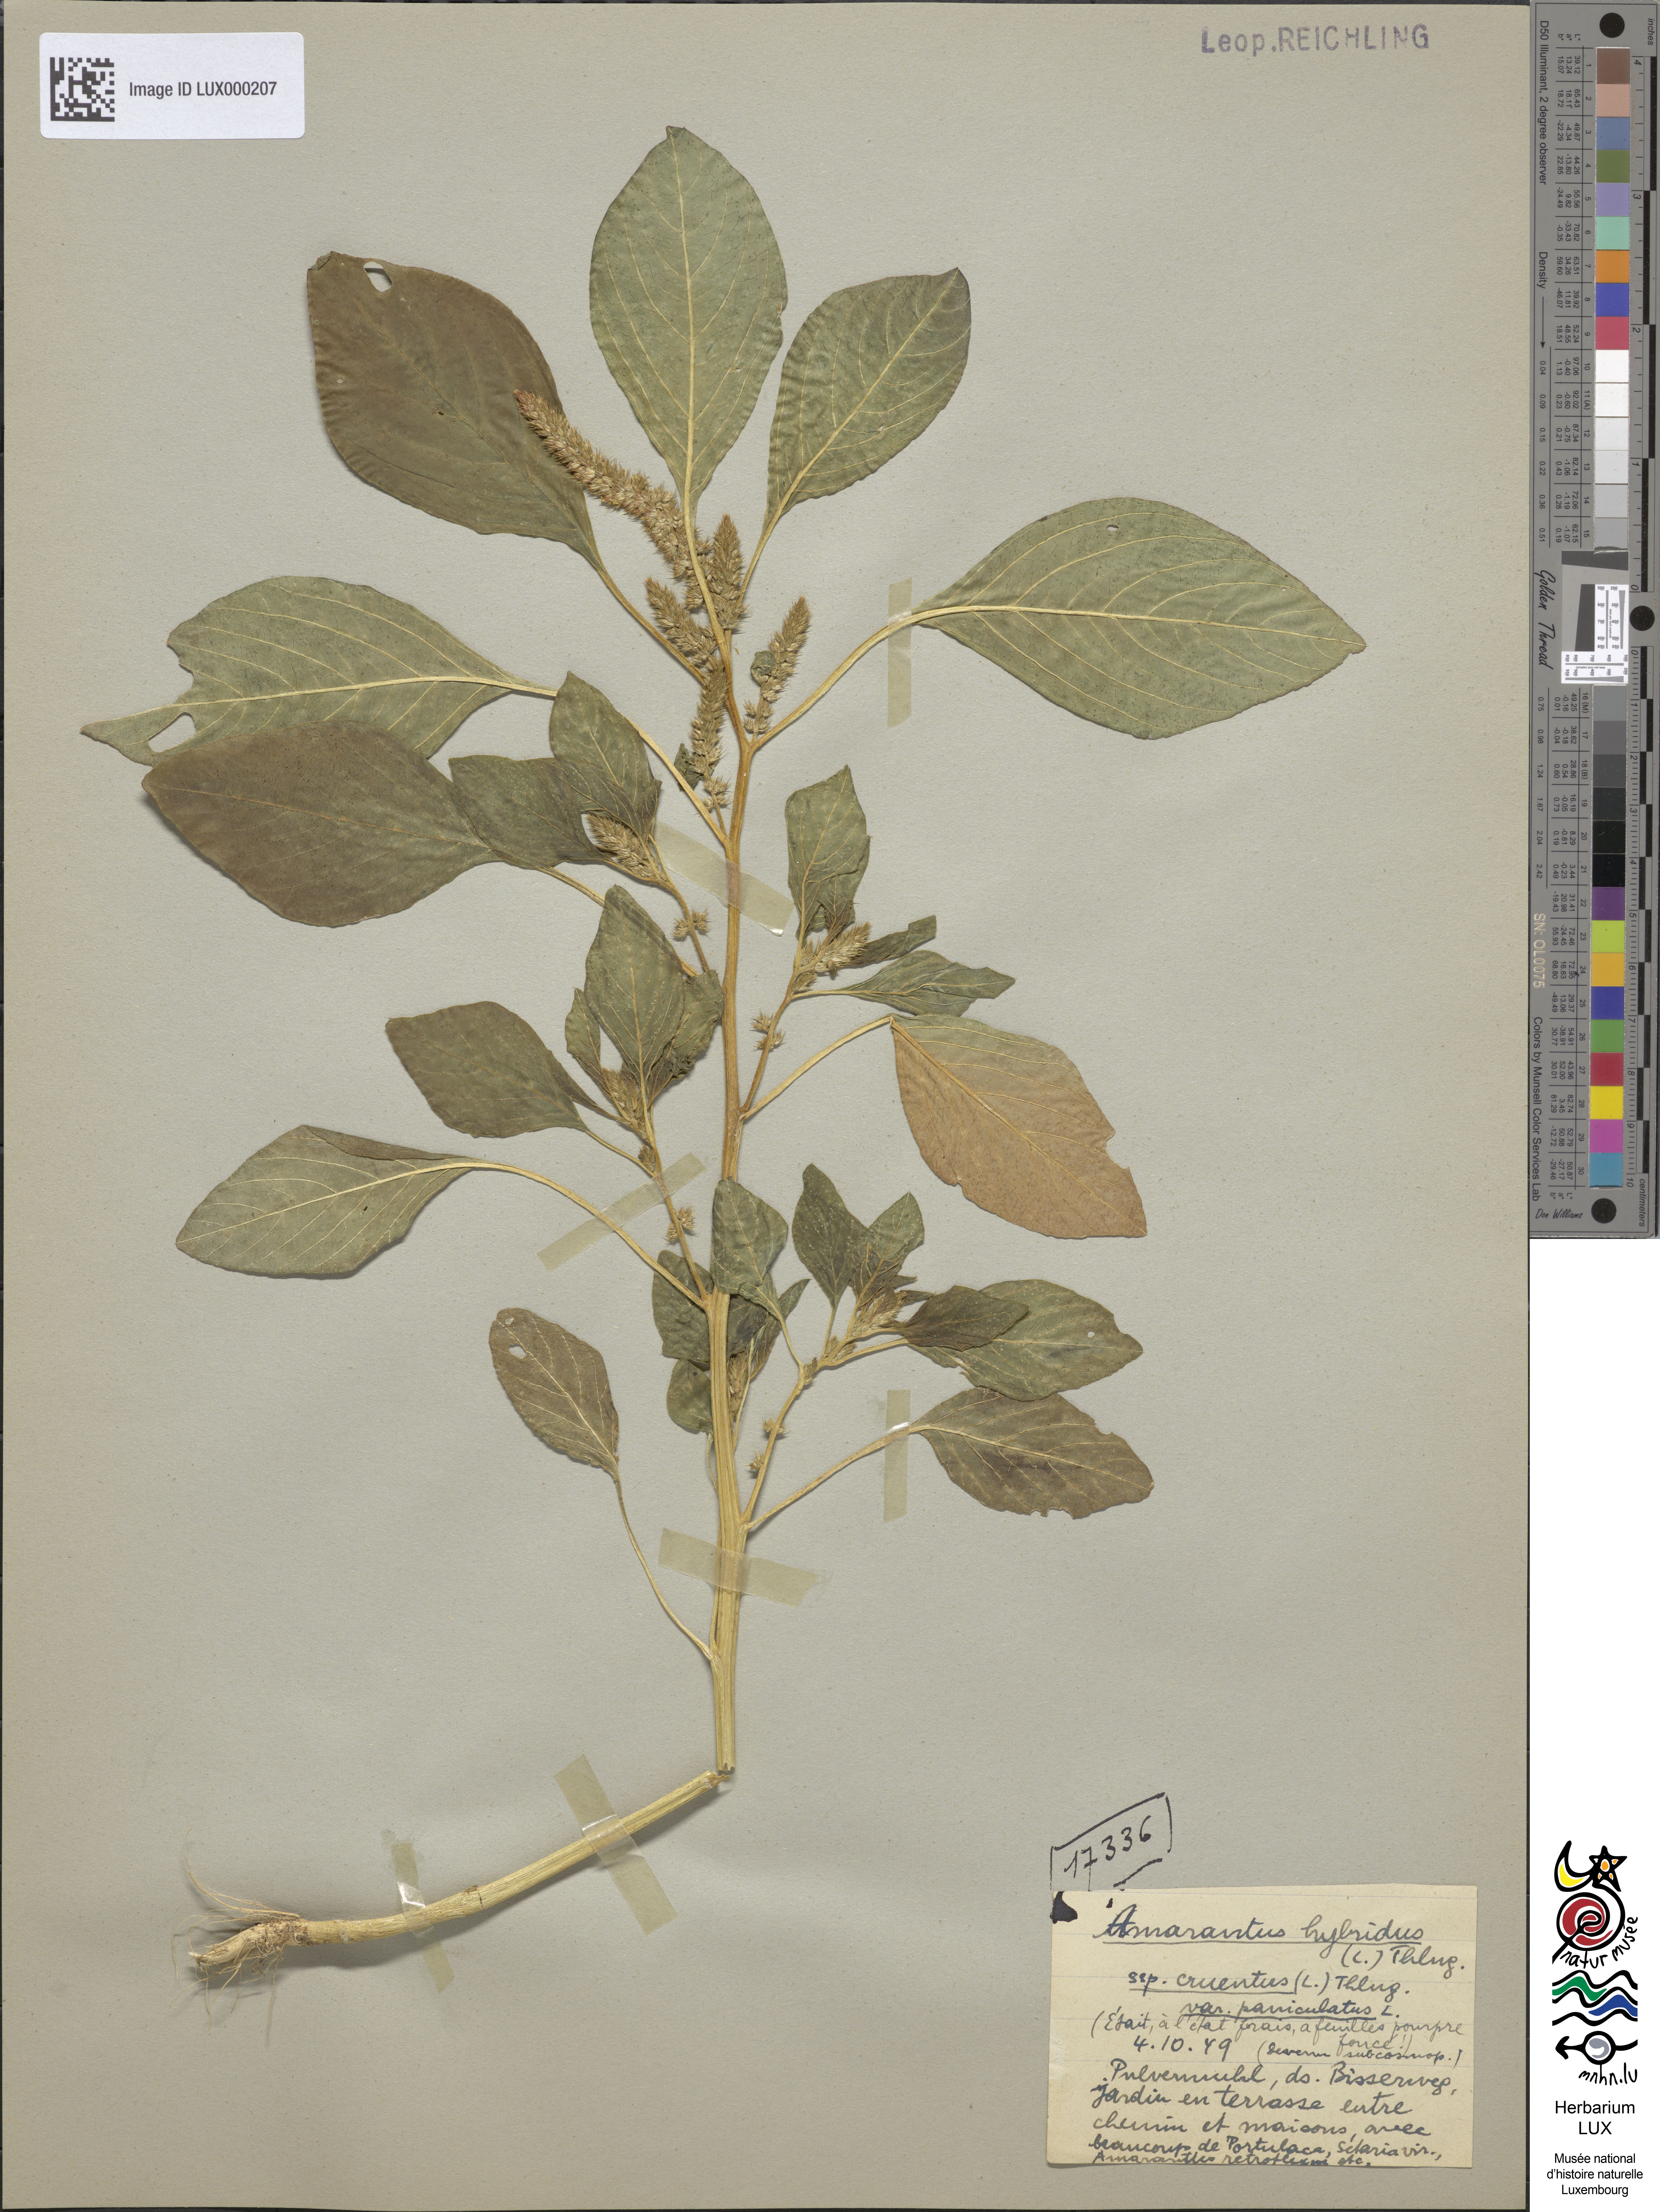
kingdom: Plantae
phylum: Tracheophyta
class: Magnoliopsida
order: Caryophyllales
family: Amaranthaceae
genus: Amaranthus
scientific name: Amaranthus hybridus
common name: Green amaranth
